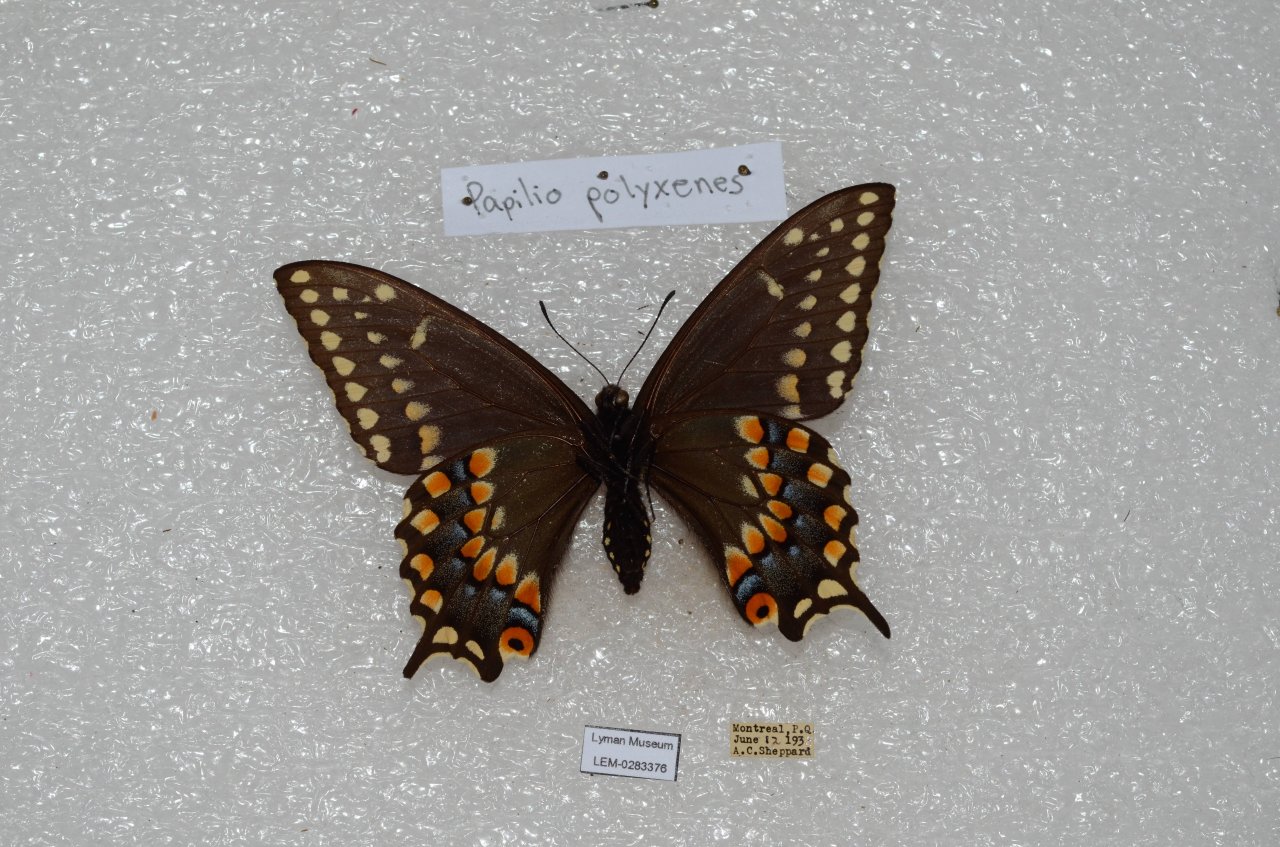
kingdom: Animalia
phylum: Arthropoda
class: Insecta
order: Lepidoptera
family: Papilionidae
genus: Papilio
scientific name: Papilio polyxenes
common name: Black Swallowtail
